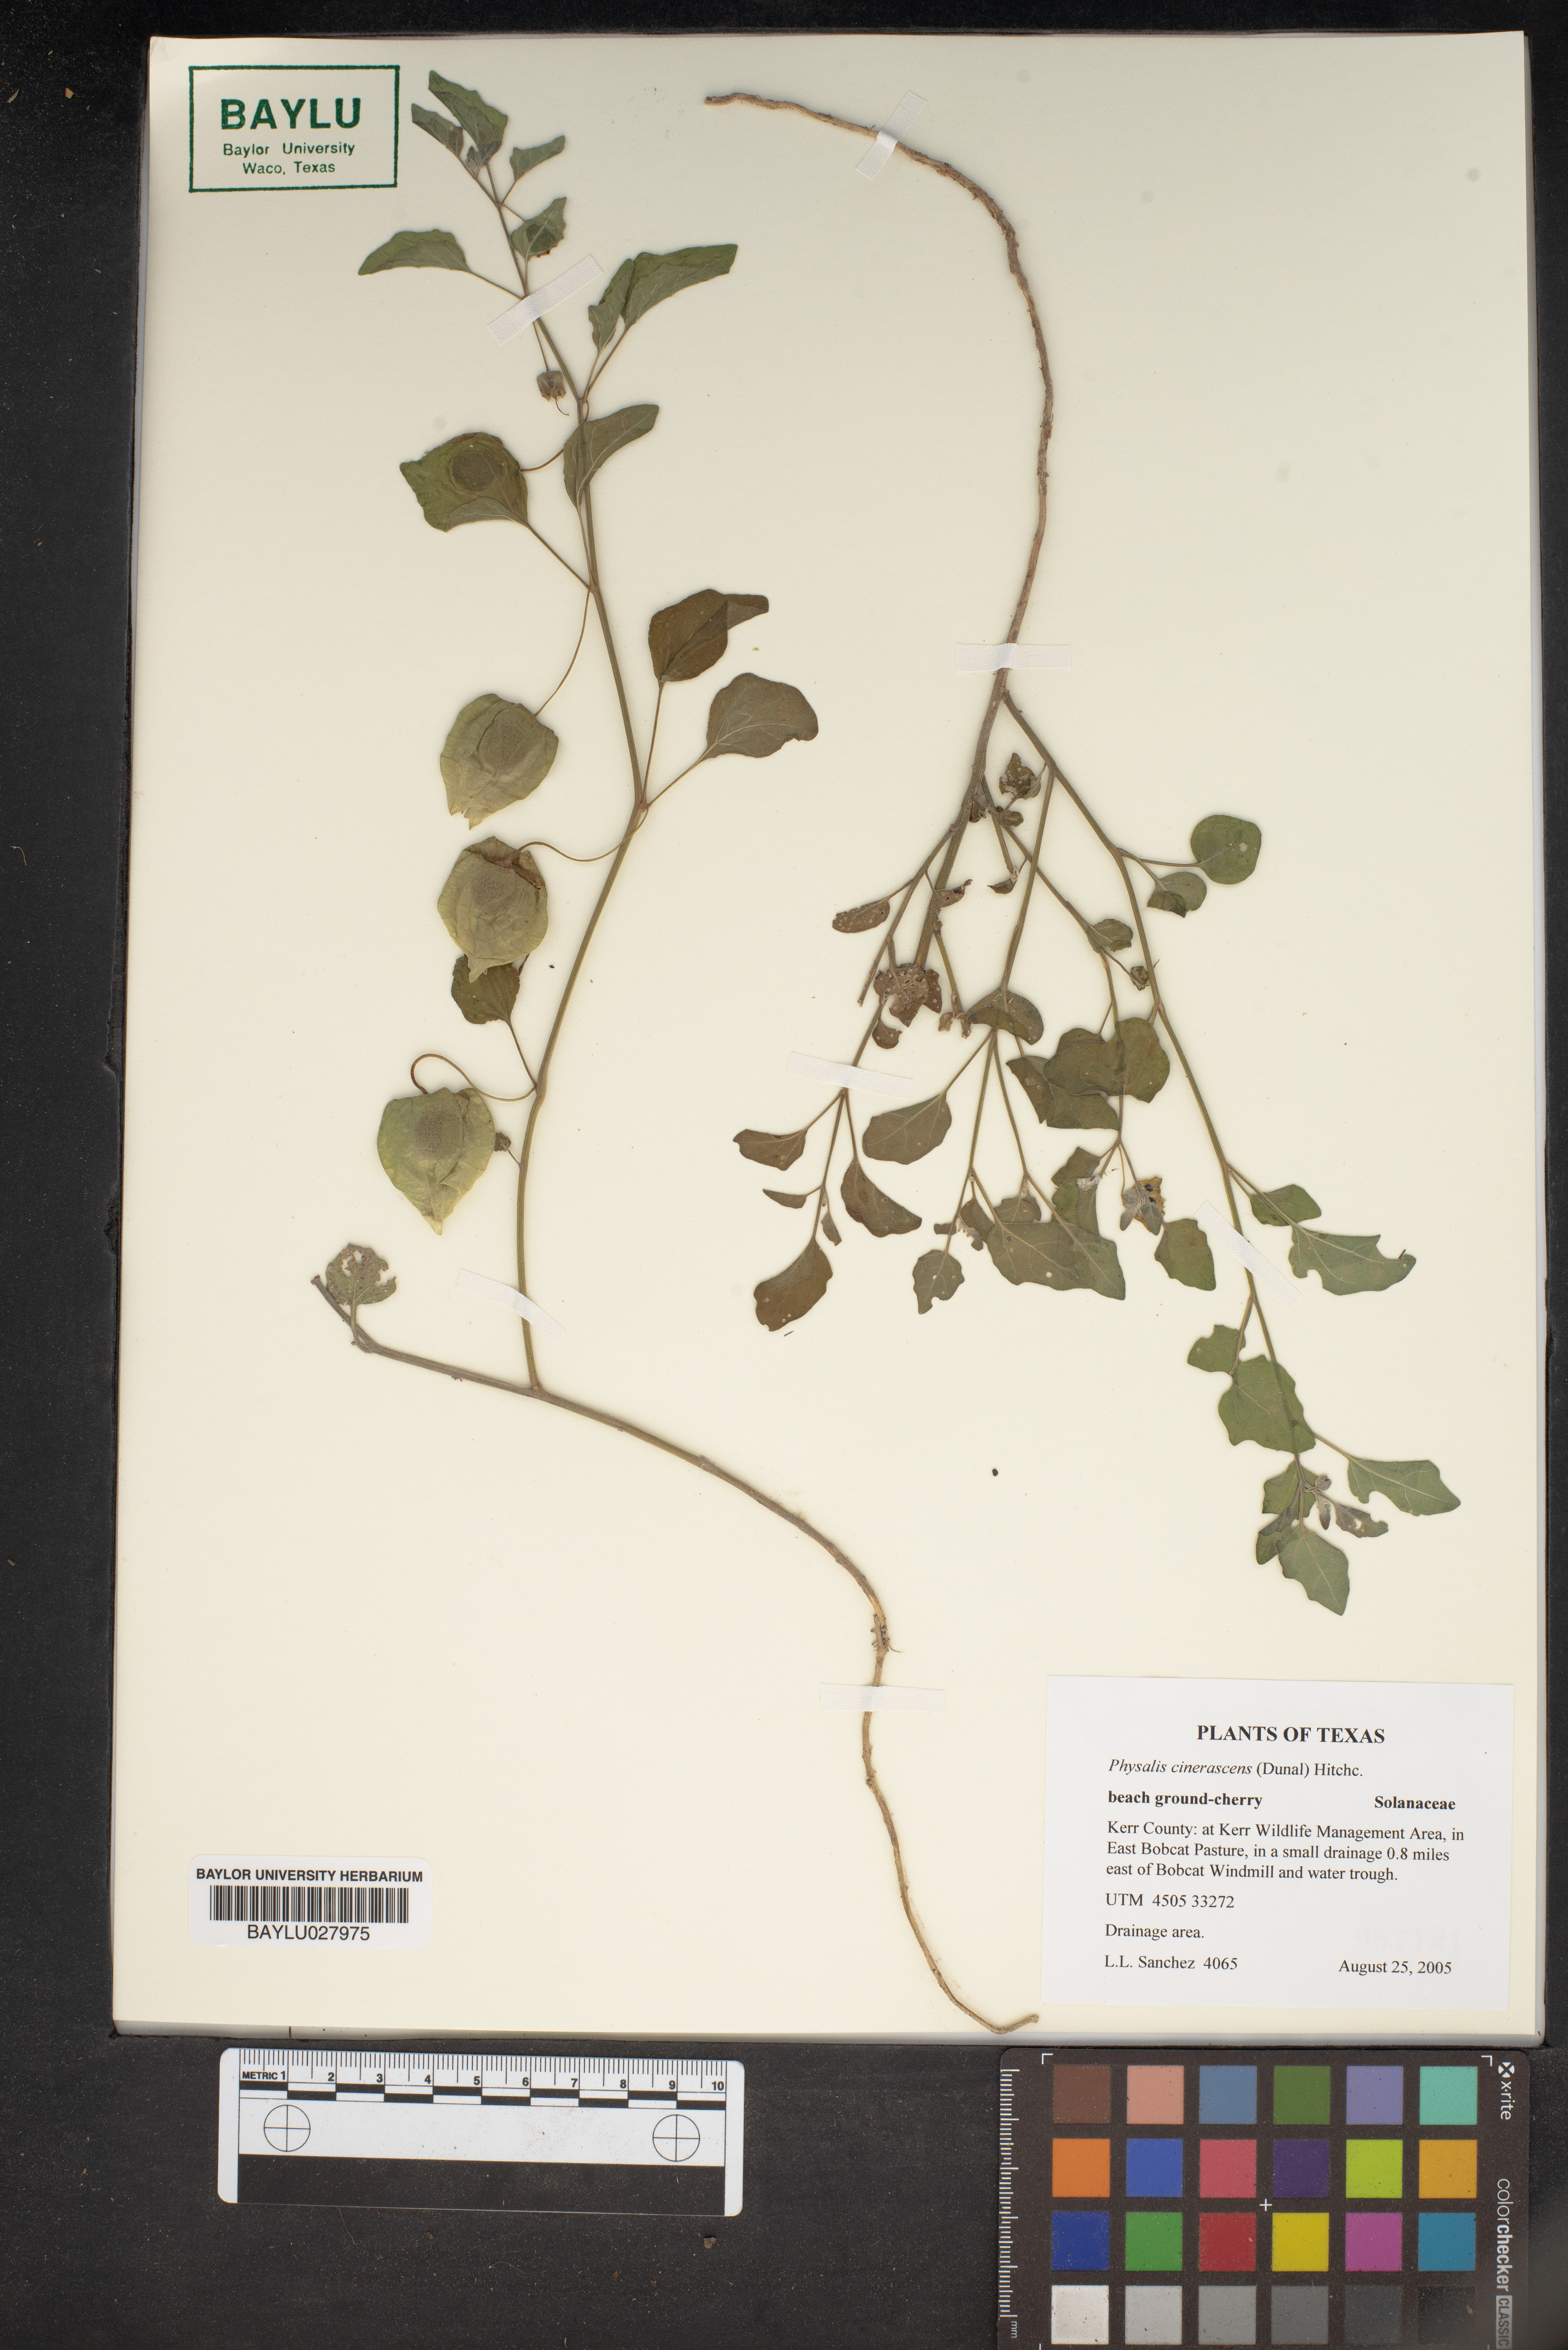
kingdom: Plantae
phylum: Tracheophyta
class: Magnoliopsida
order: Solanales
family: Solanaceae
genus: Physalis
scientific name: Physalis cinerascens
